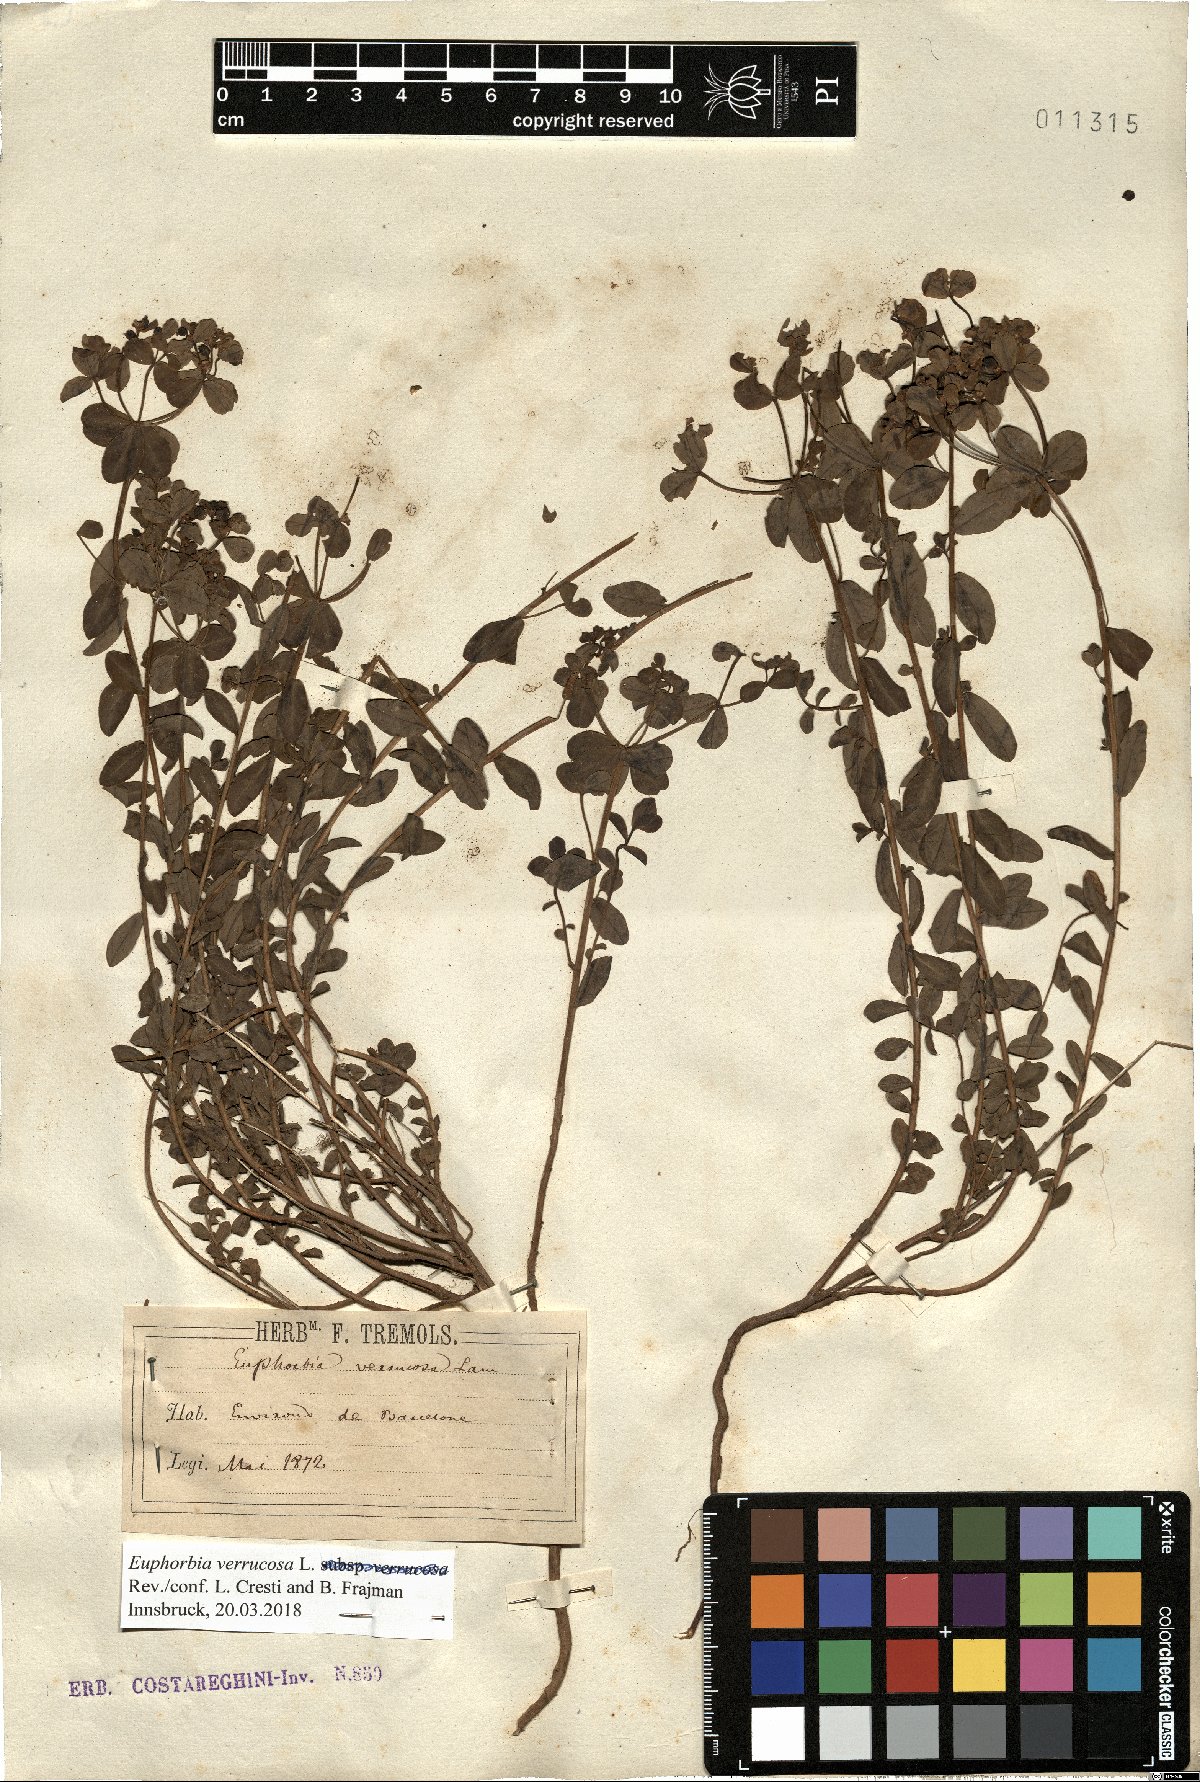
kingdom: Plantae
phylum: Tracheophyta
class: Magnoliopsida
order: Malpighiales
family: Euphorbiaceae
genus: Euphorbia
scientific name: Euphorbia verrucosa
